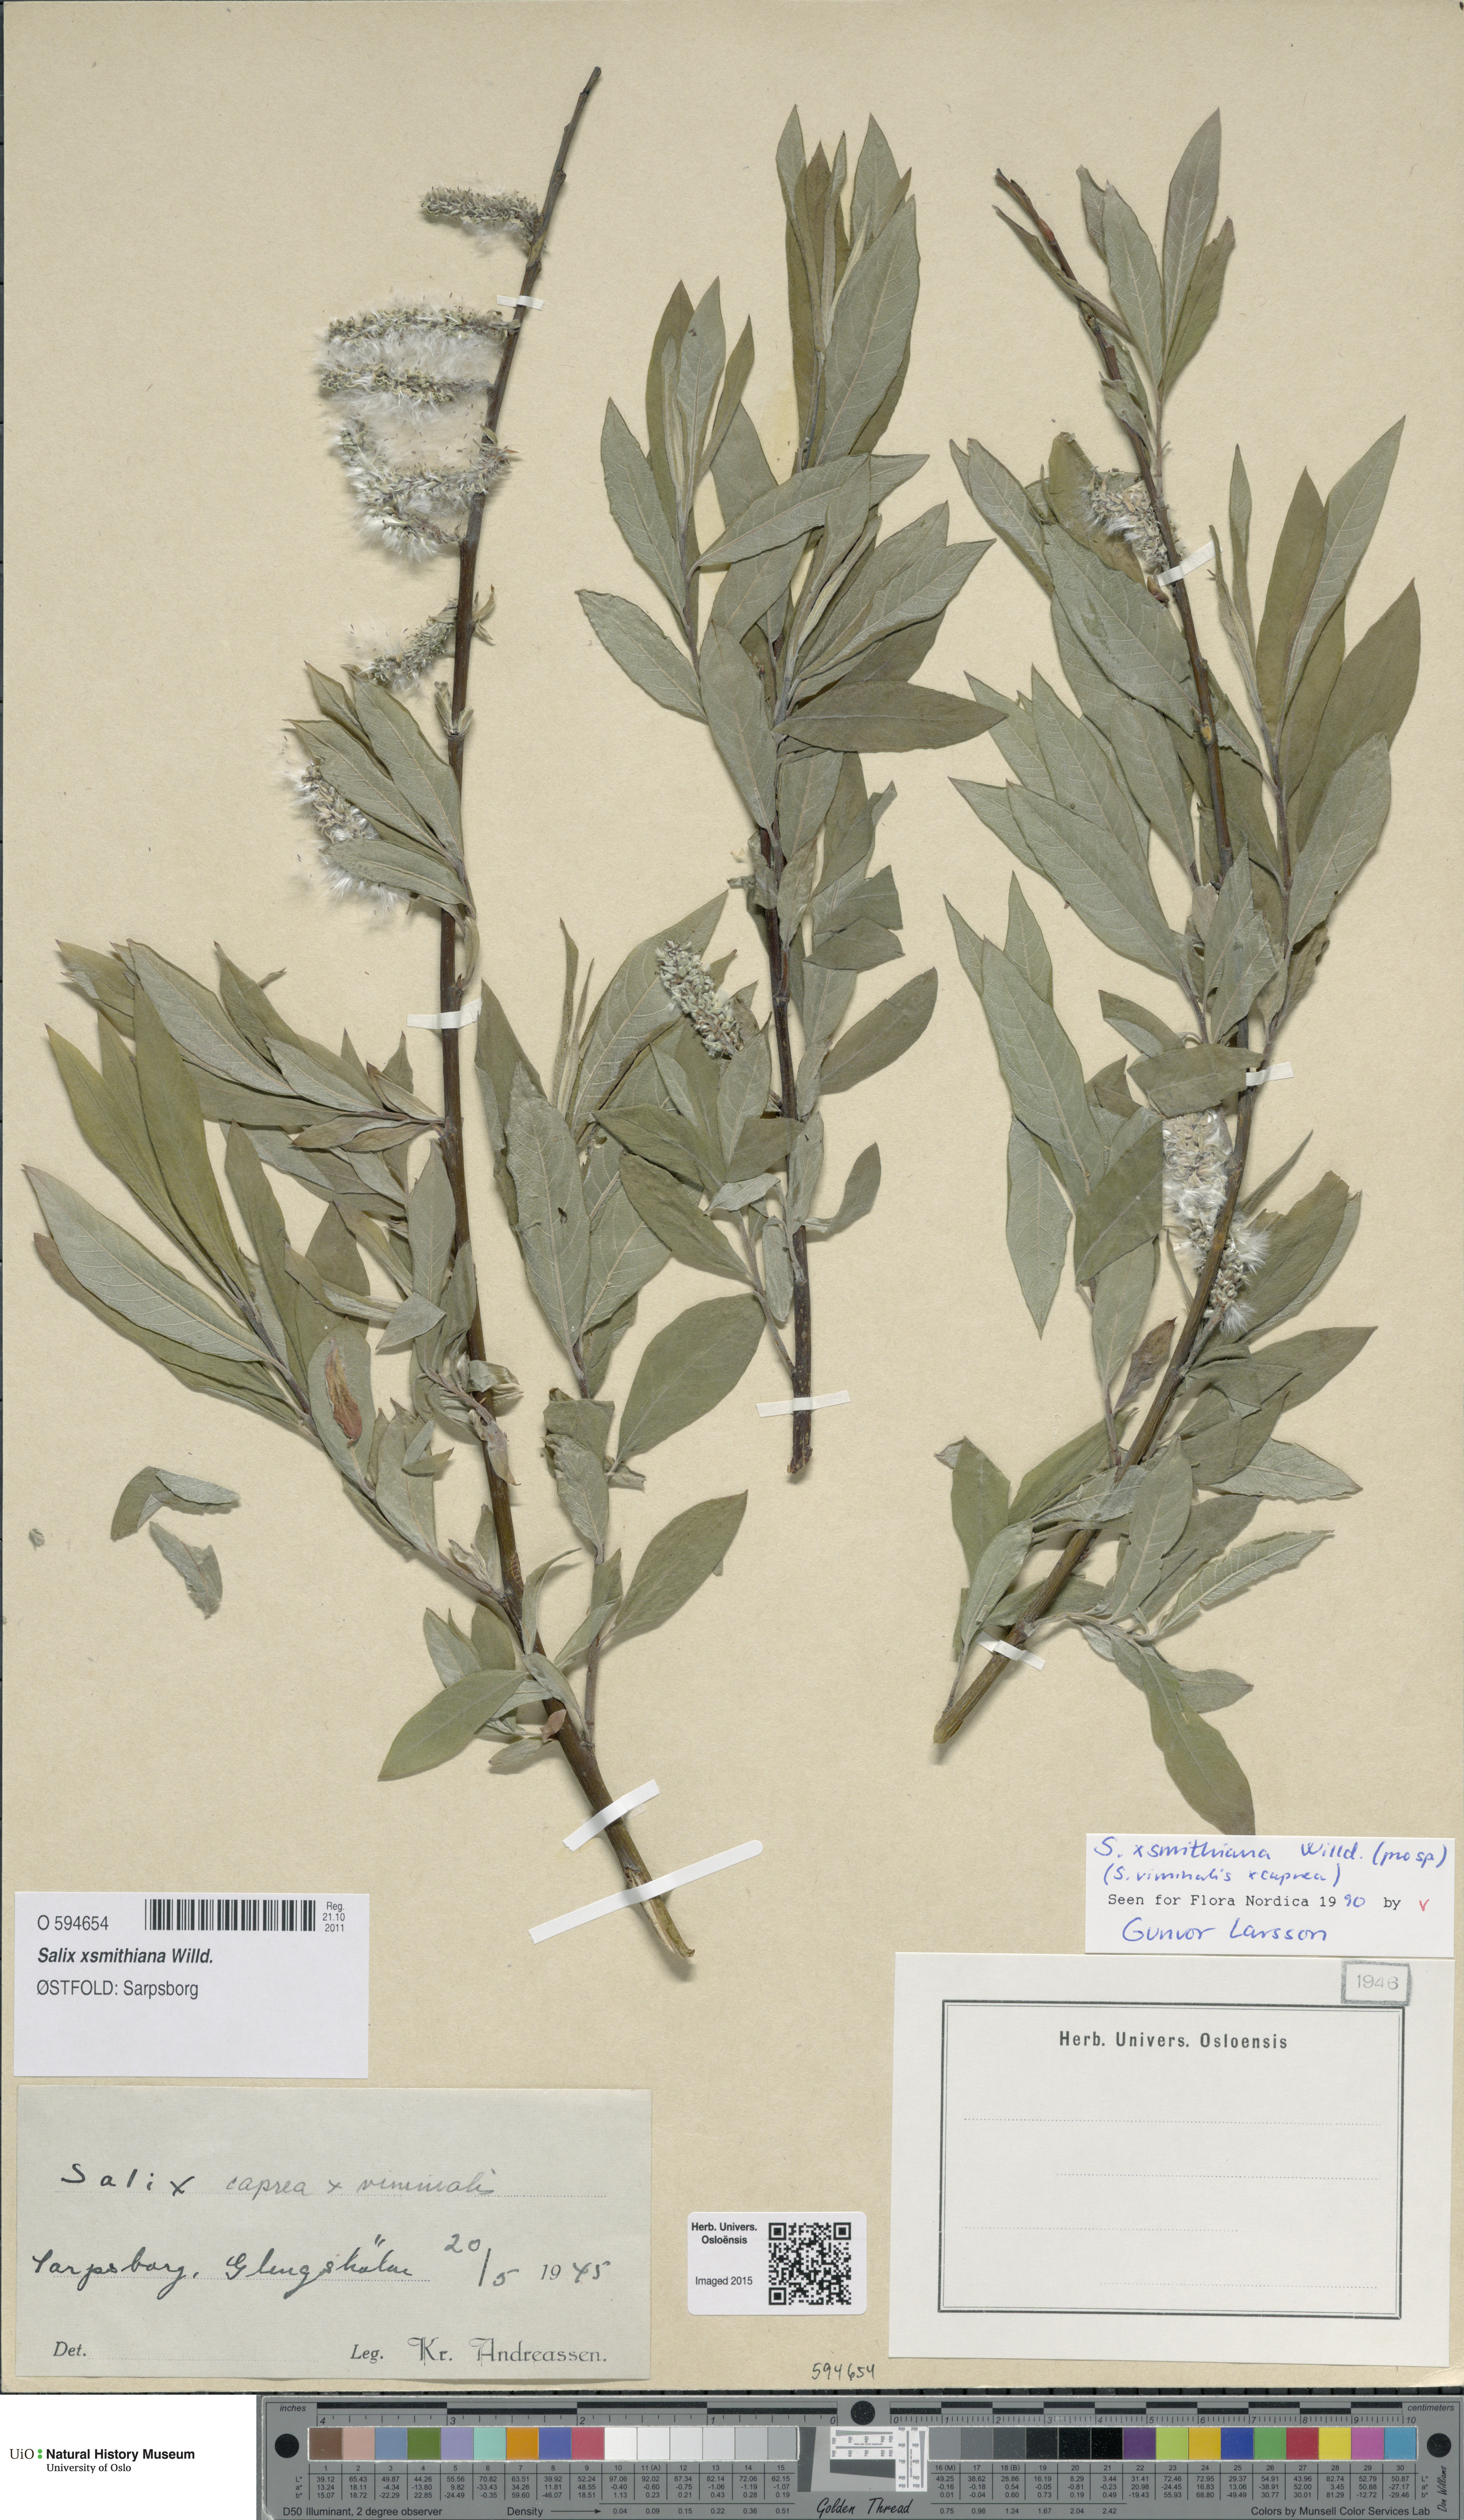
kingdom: Plantae
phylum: Tracheophyta
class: Magnoliopsida
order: Malpighiales
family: Salicaceae
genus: Salix
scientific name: Salix smithiana
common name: Silky-leaved osier
